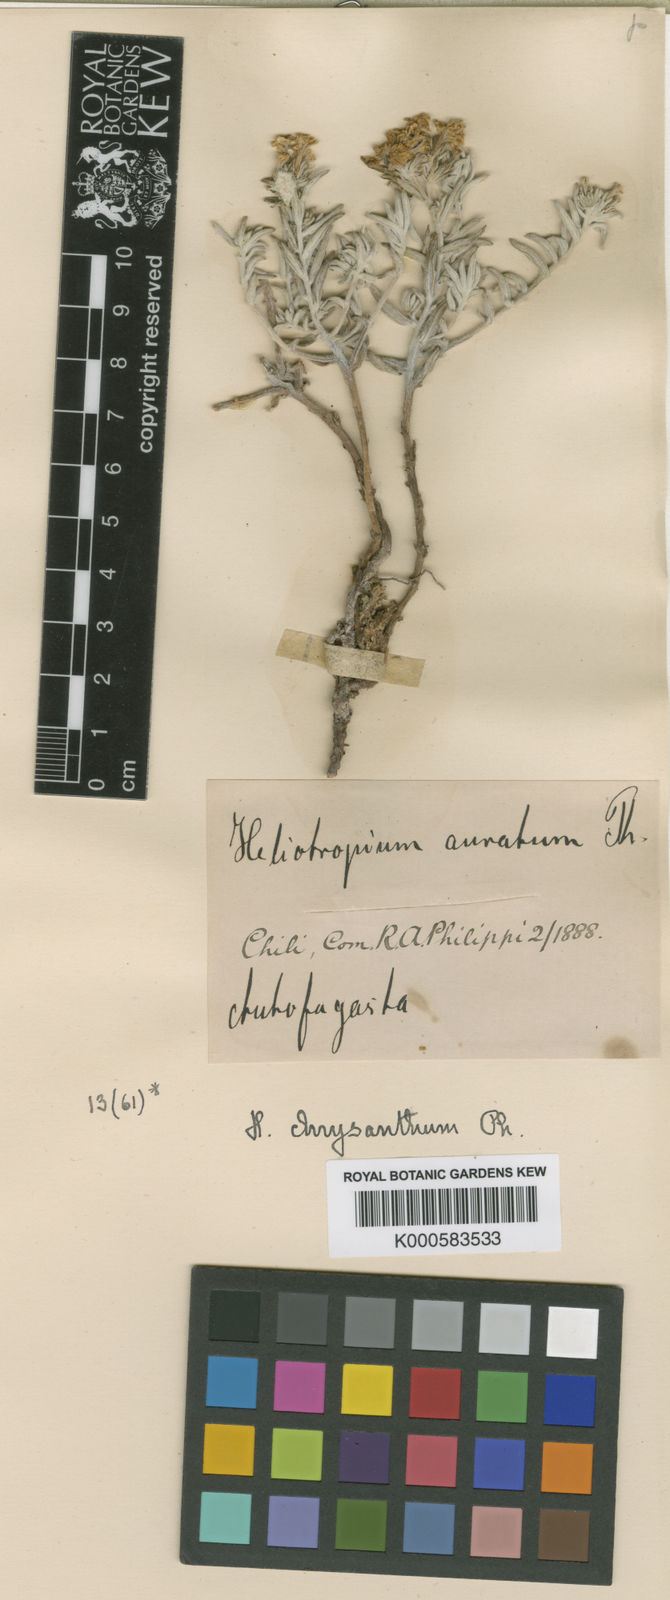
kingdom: Plantae
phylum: Tracheophyta
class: Magnoliopsida
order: Boraginales
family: Heliotropiaceae
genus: Euploca
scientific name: Euploca chrysantha
